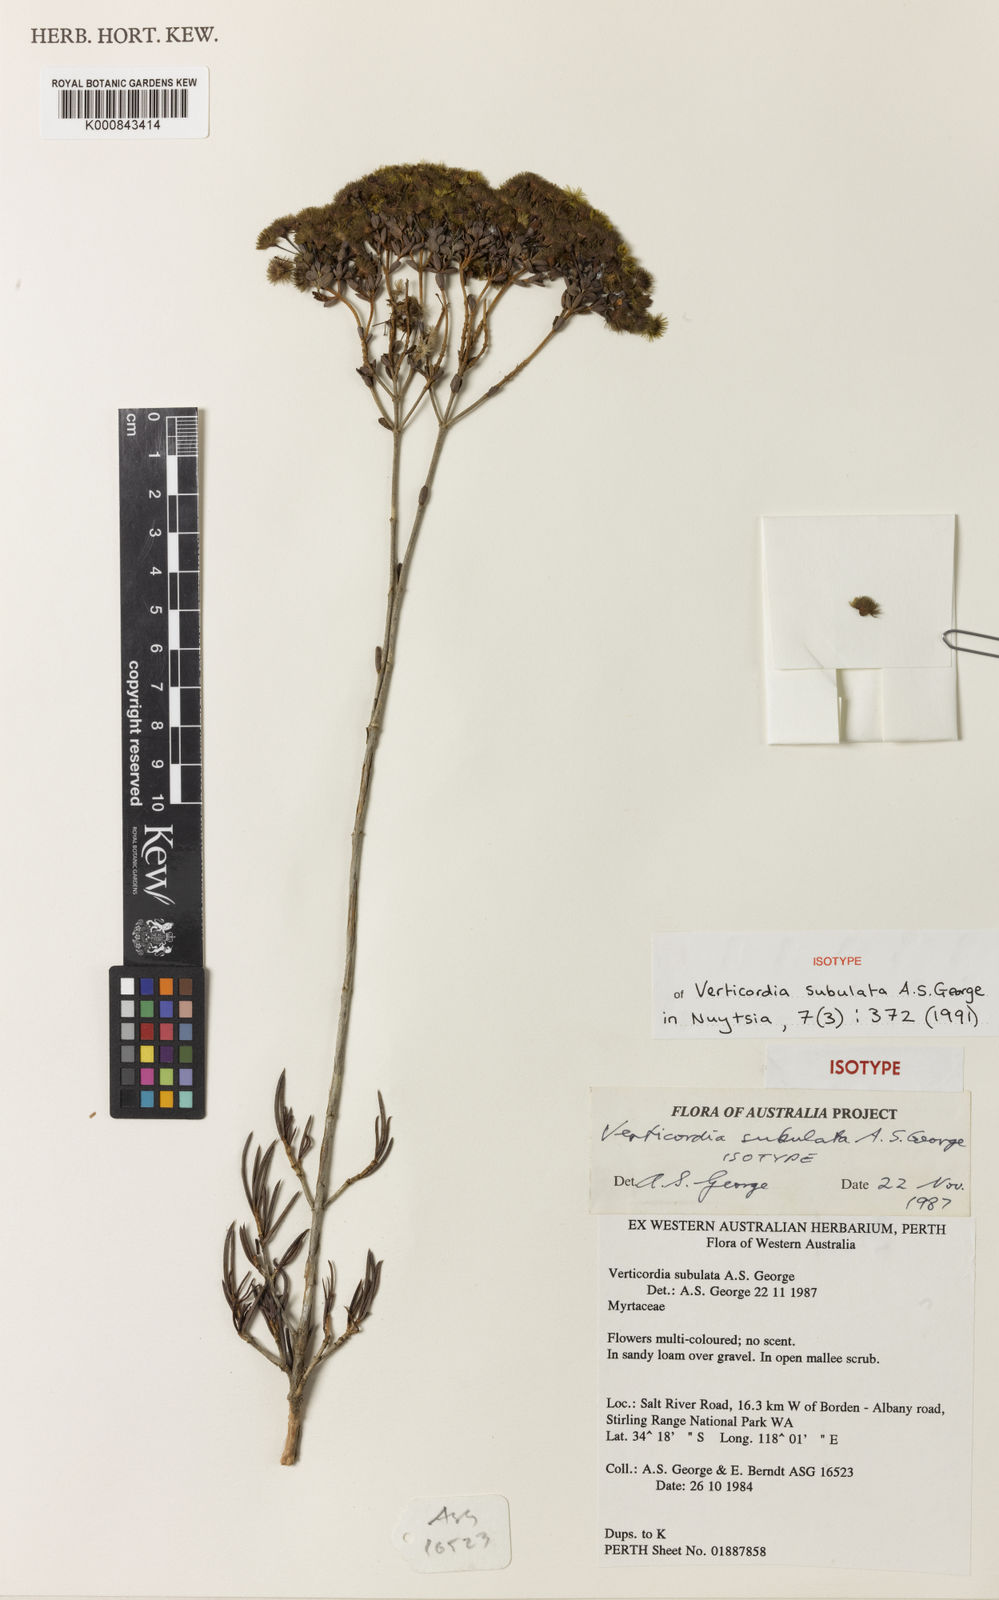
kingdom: Plantae
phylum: Tracheophyta
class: Magnoliopsida
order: Myrtales
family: Myrtaceae
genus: Verticordia
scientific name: Verticordia subulata
